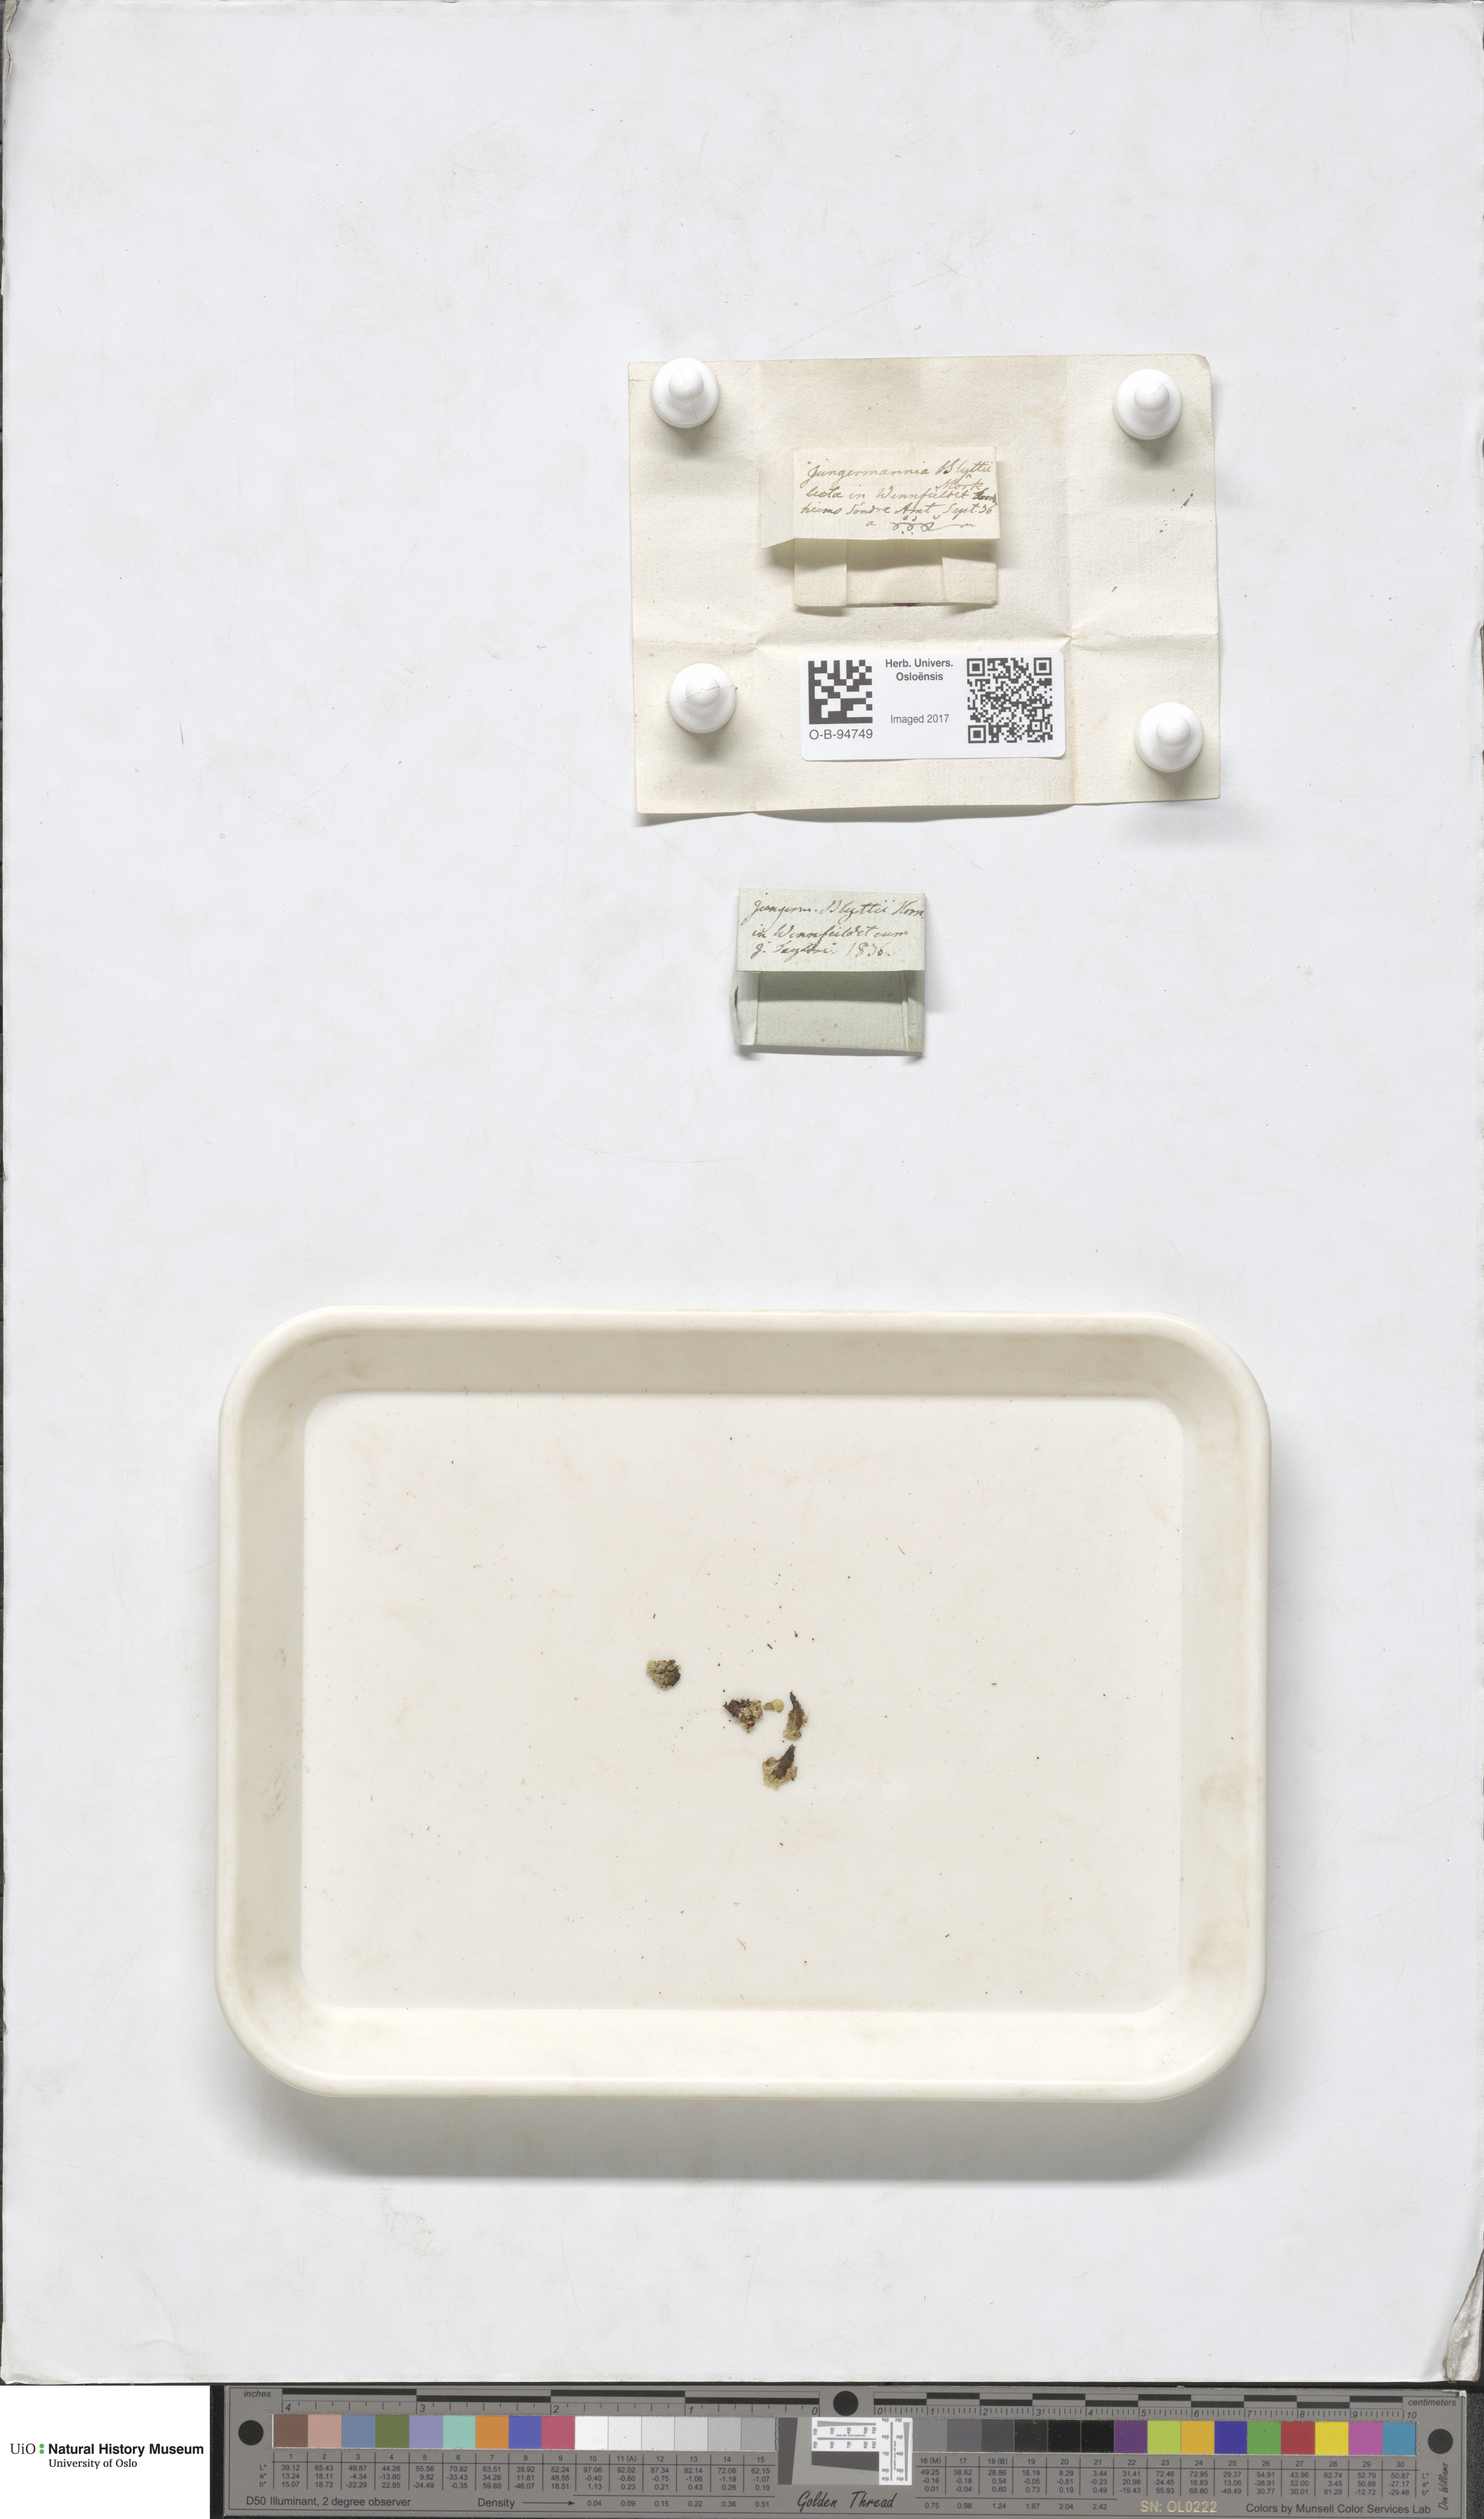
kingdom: Plantae
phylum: Marchantiophyta
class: Jungermanniopsida
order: Pallaviciniales
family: Pseudomoerckiaceae
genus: Pseudomoerckia
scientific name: Pseudomoerckia blyttii
